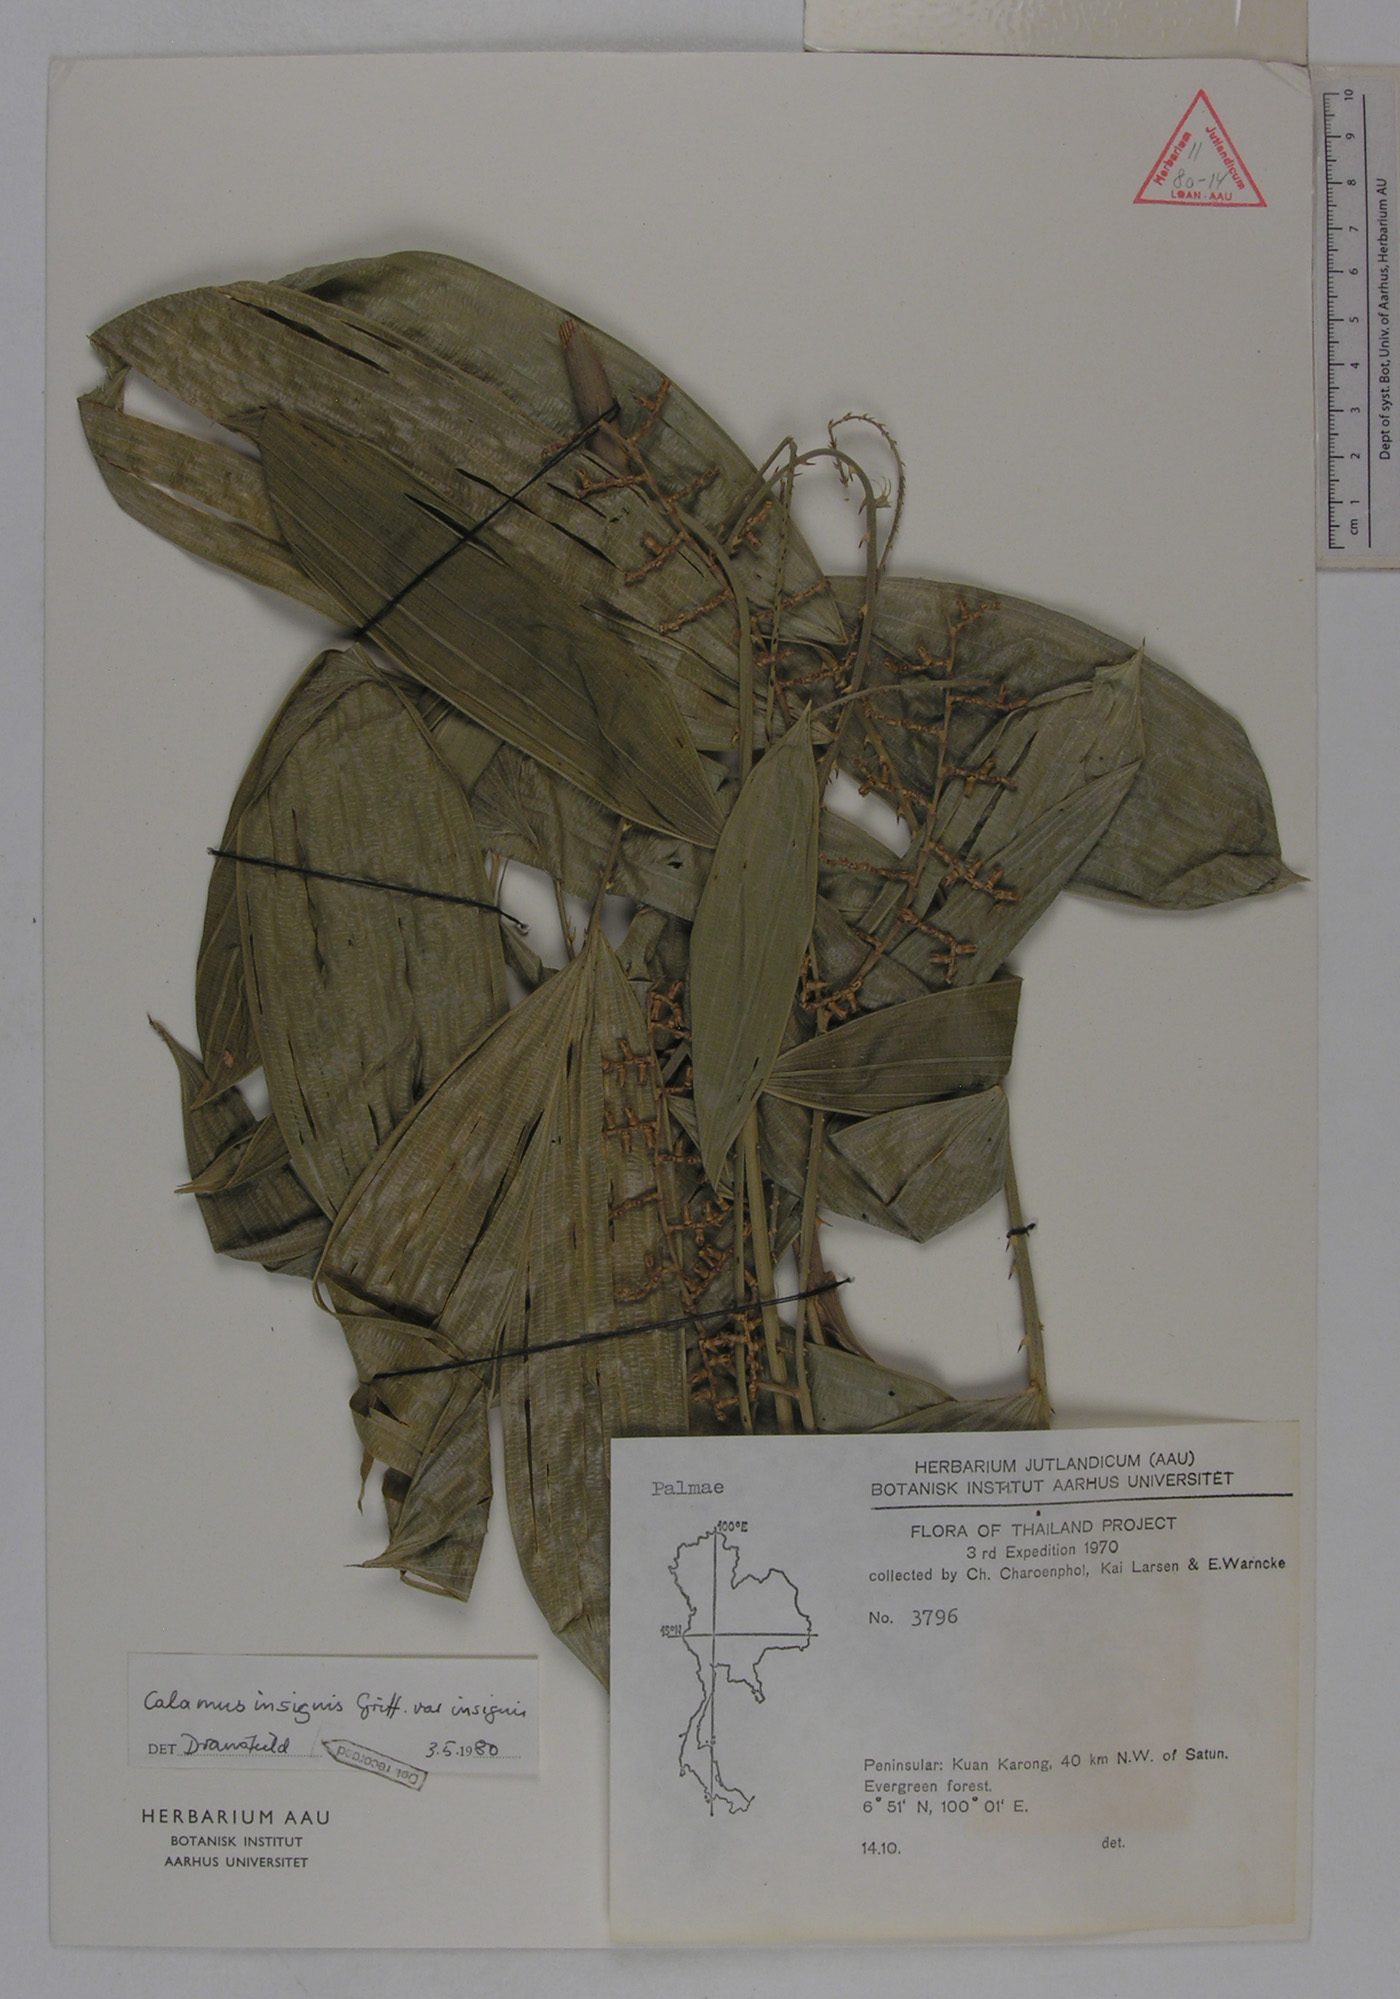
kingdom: Plantae
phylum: Tracheophyta
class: Liliopsida
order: Arecales
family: Arecaceae
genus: Calamus
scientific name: Calamus insignis
